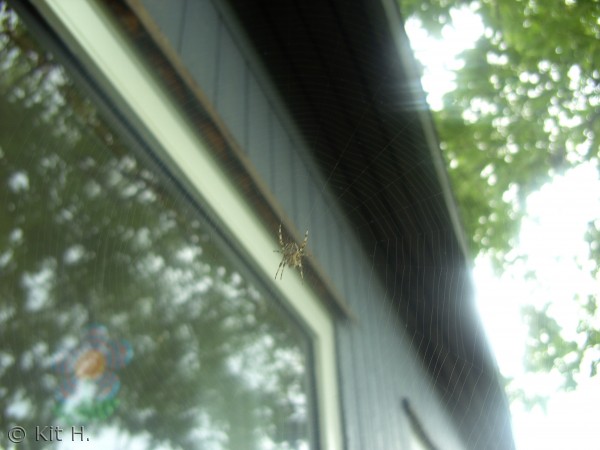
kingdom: Animalia
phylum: Arthropoda
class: Arachnida
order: Araneae
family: Araneidae
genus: Araneus
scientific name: Araneus diadematus
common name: Korsedderkop
